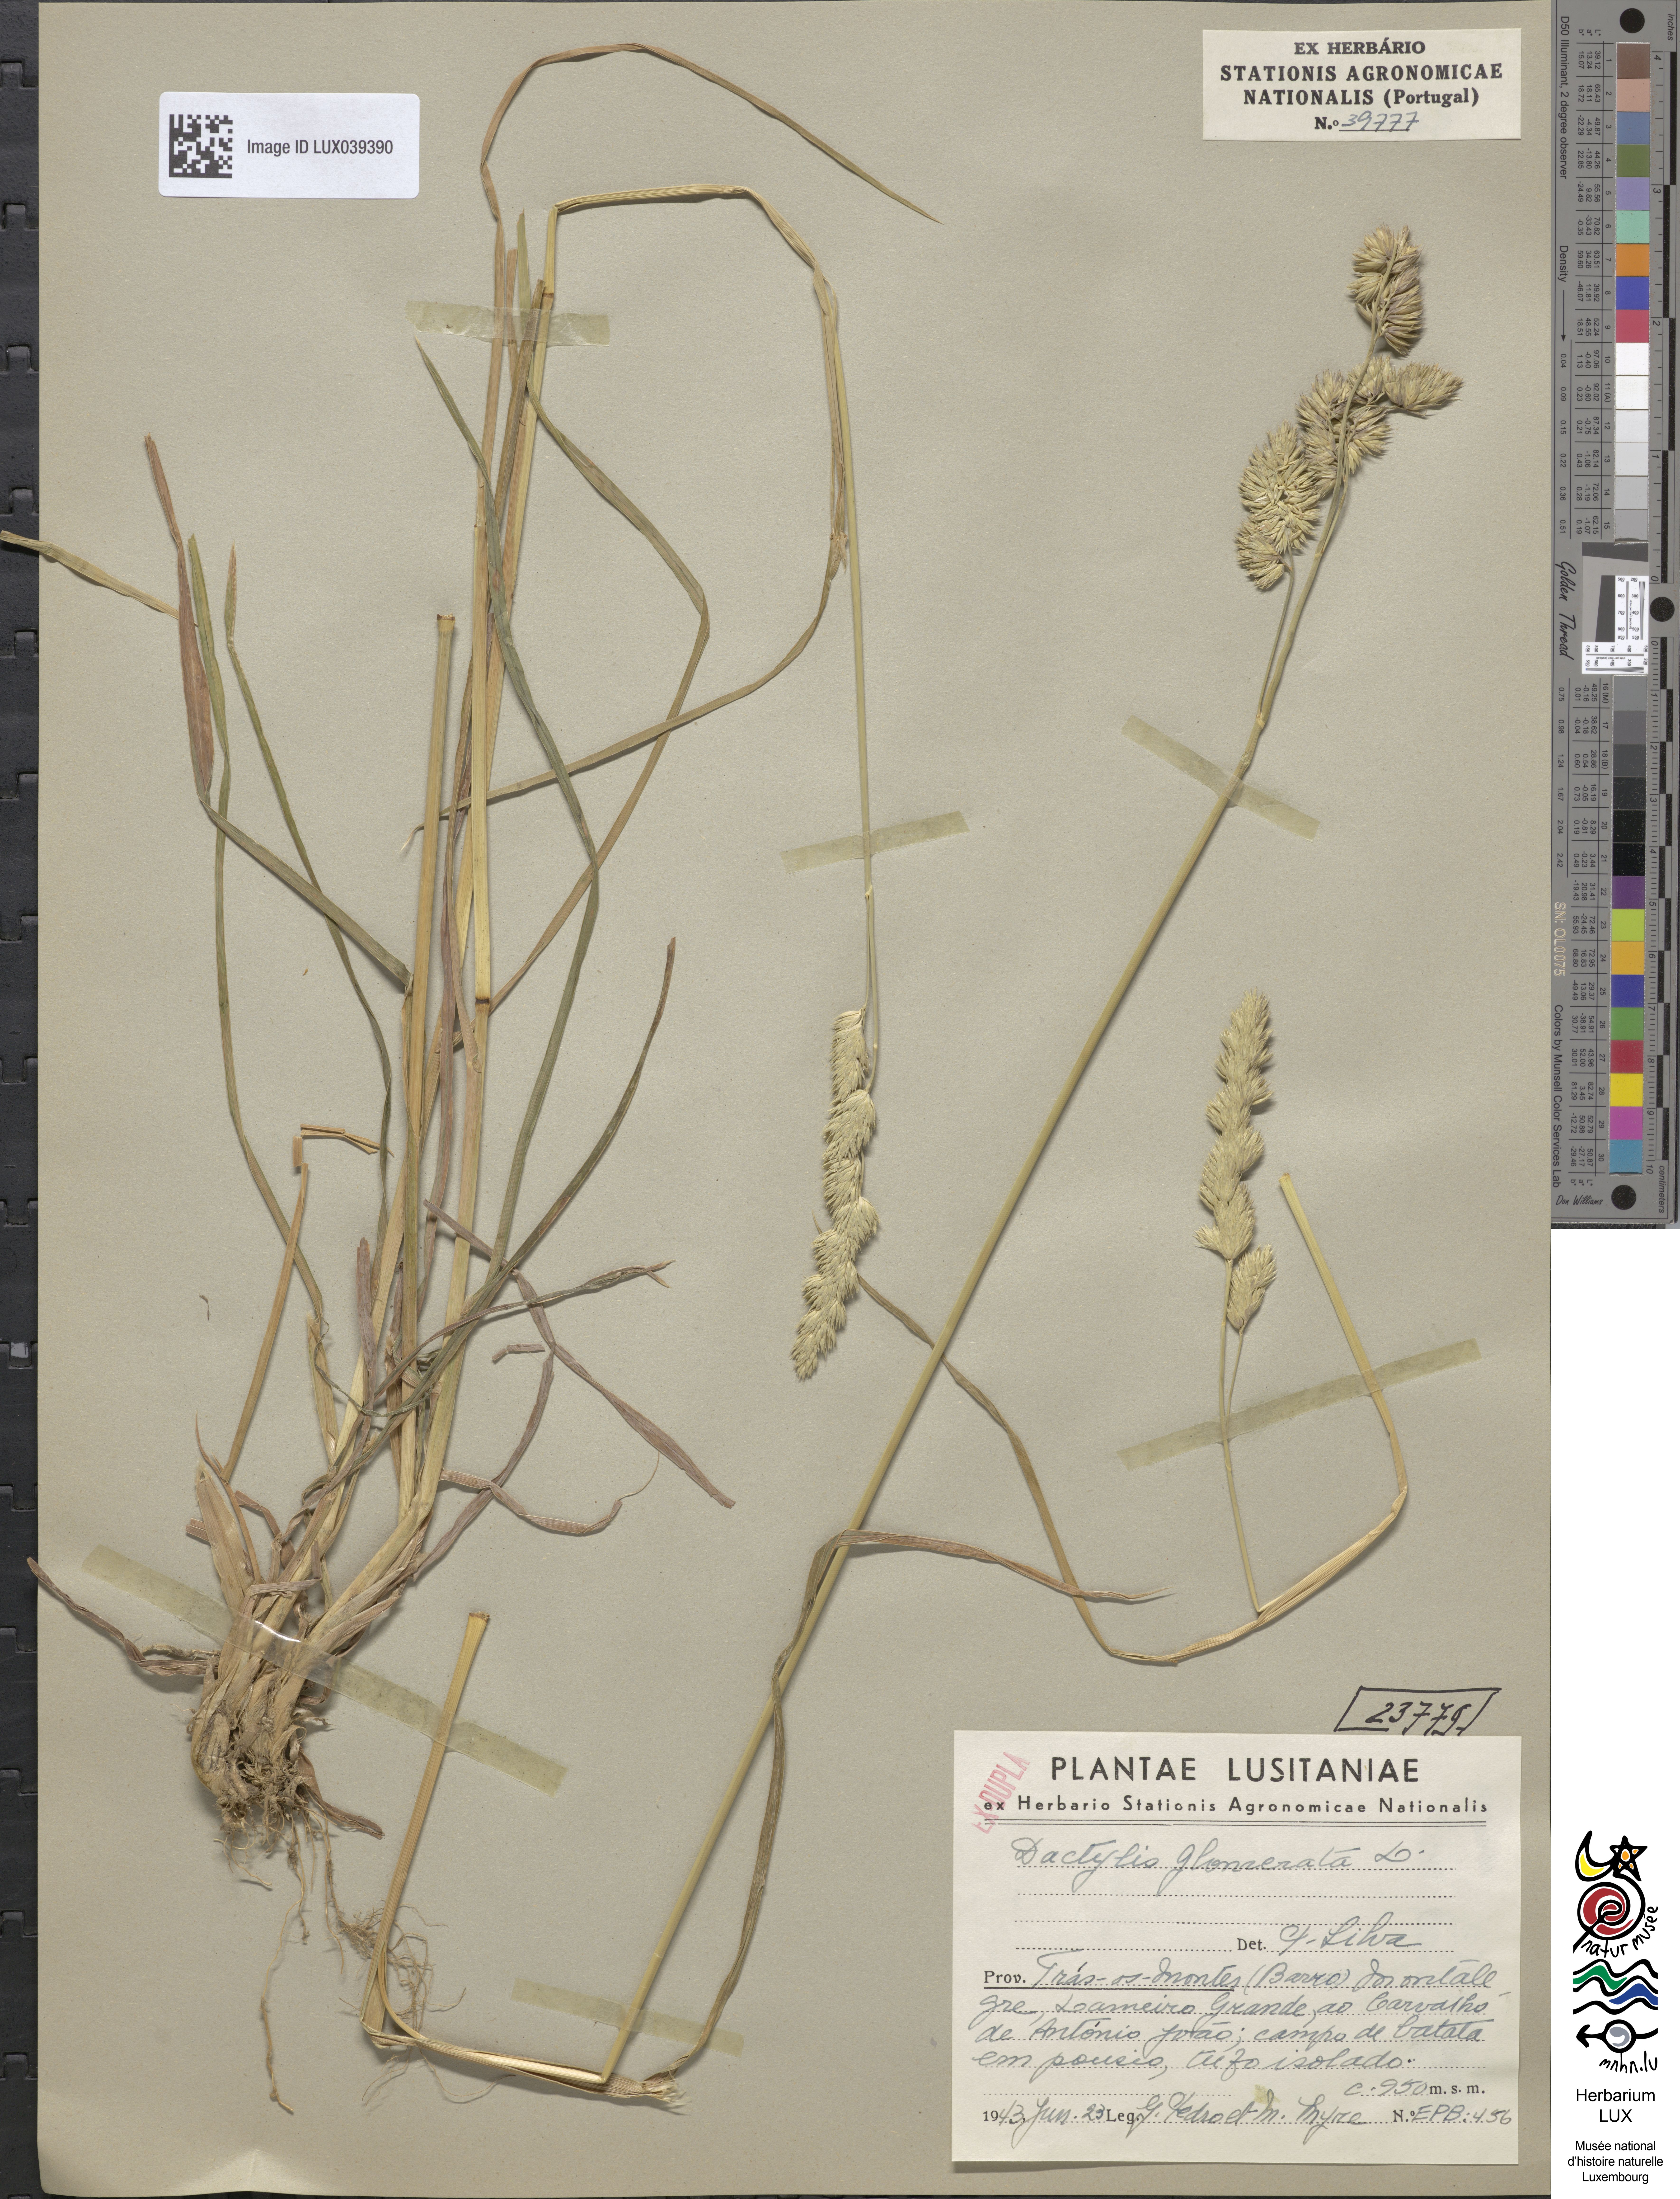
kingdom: Plantae
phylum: Tracheophyta
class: Liliopsida
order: Poales
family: Poaceae
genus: Dactylis
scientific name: Dactylis glomerata
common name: Orchardgrass
